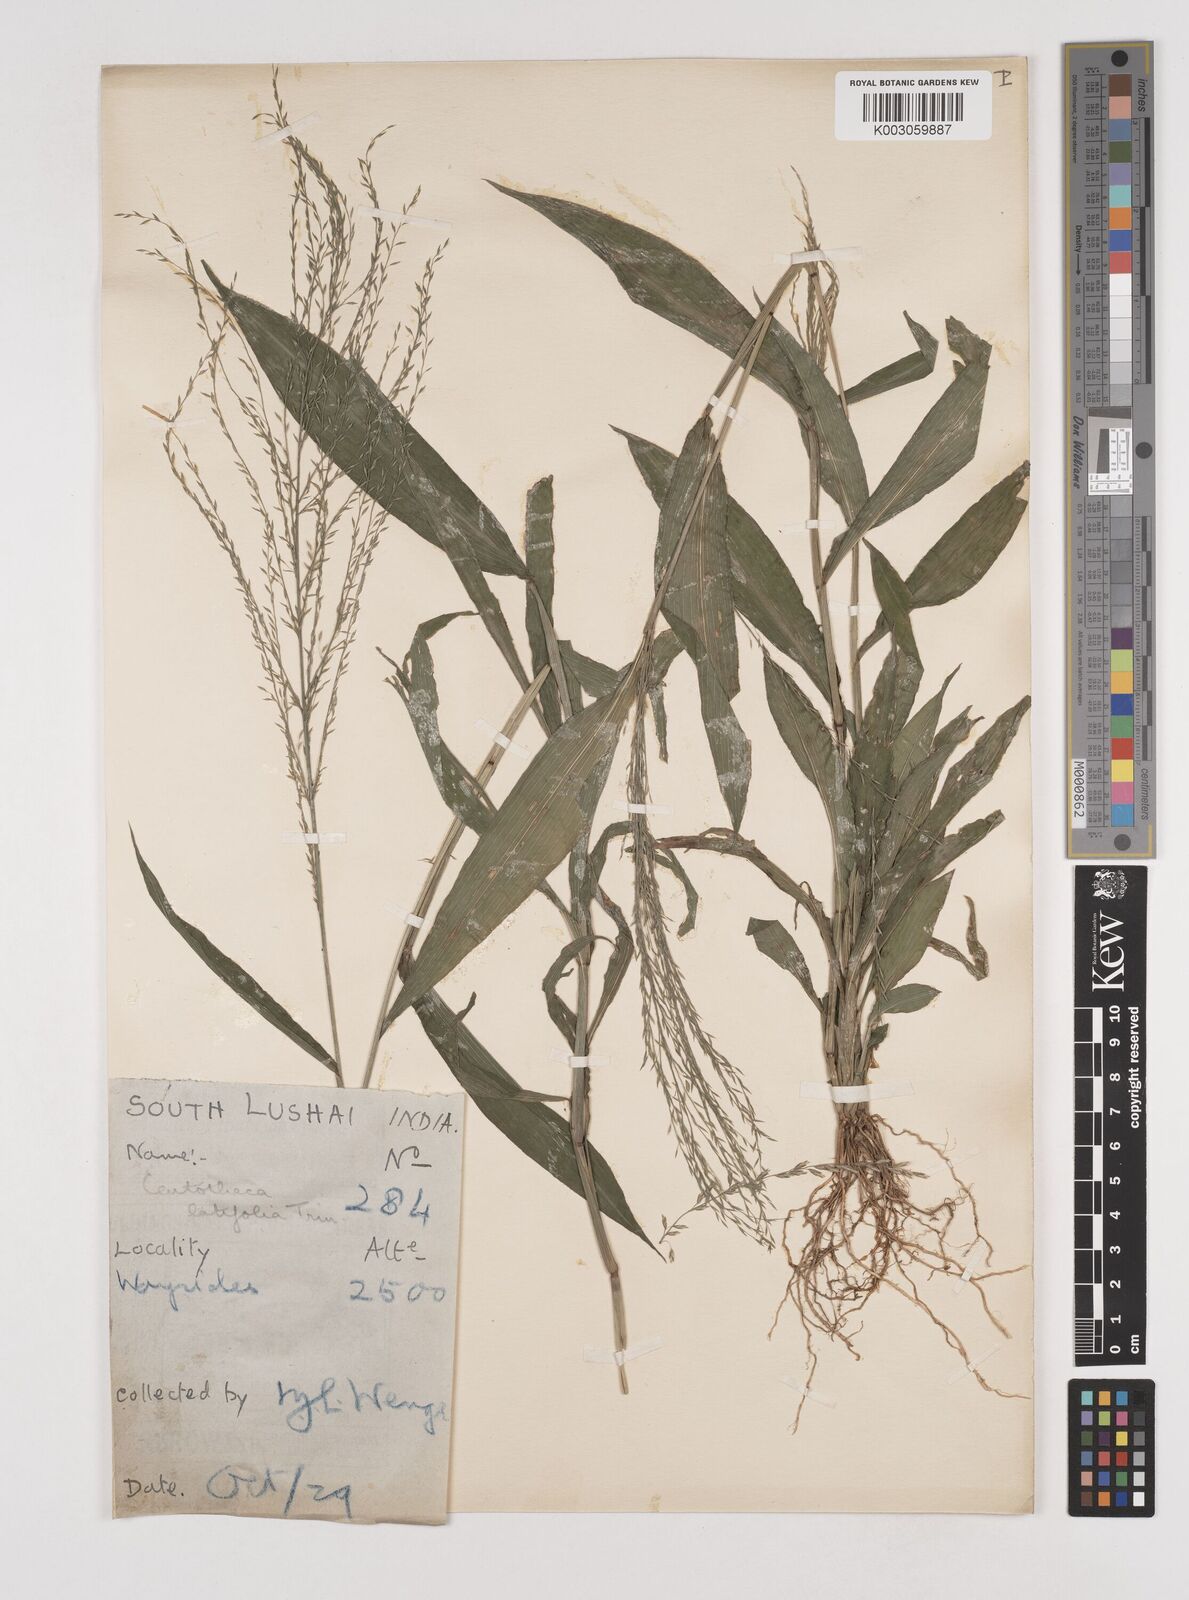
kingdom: Plantae
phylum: Tracheophyta
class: Liliopsida
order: Poales
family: Poaceae
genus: Centotheca
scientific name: Centotheca lappacea
